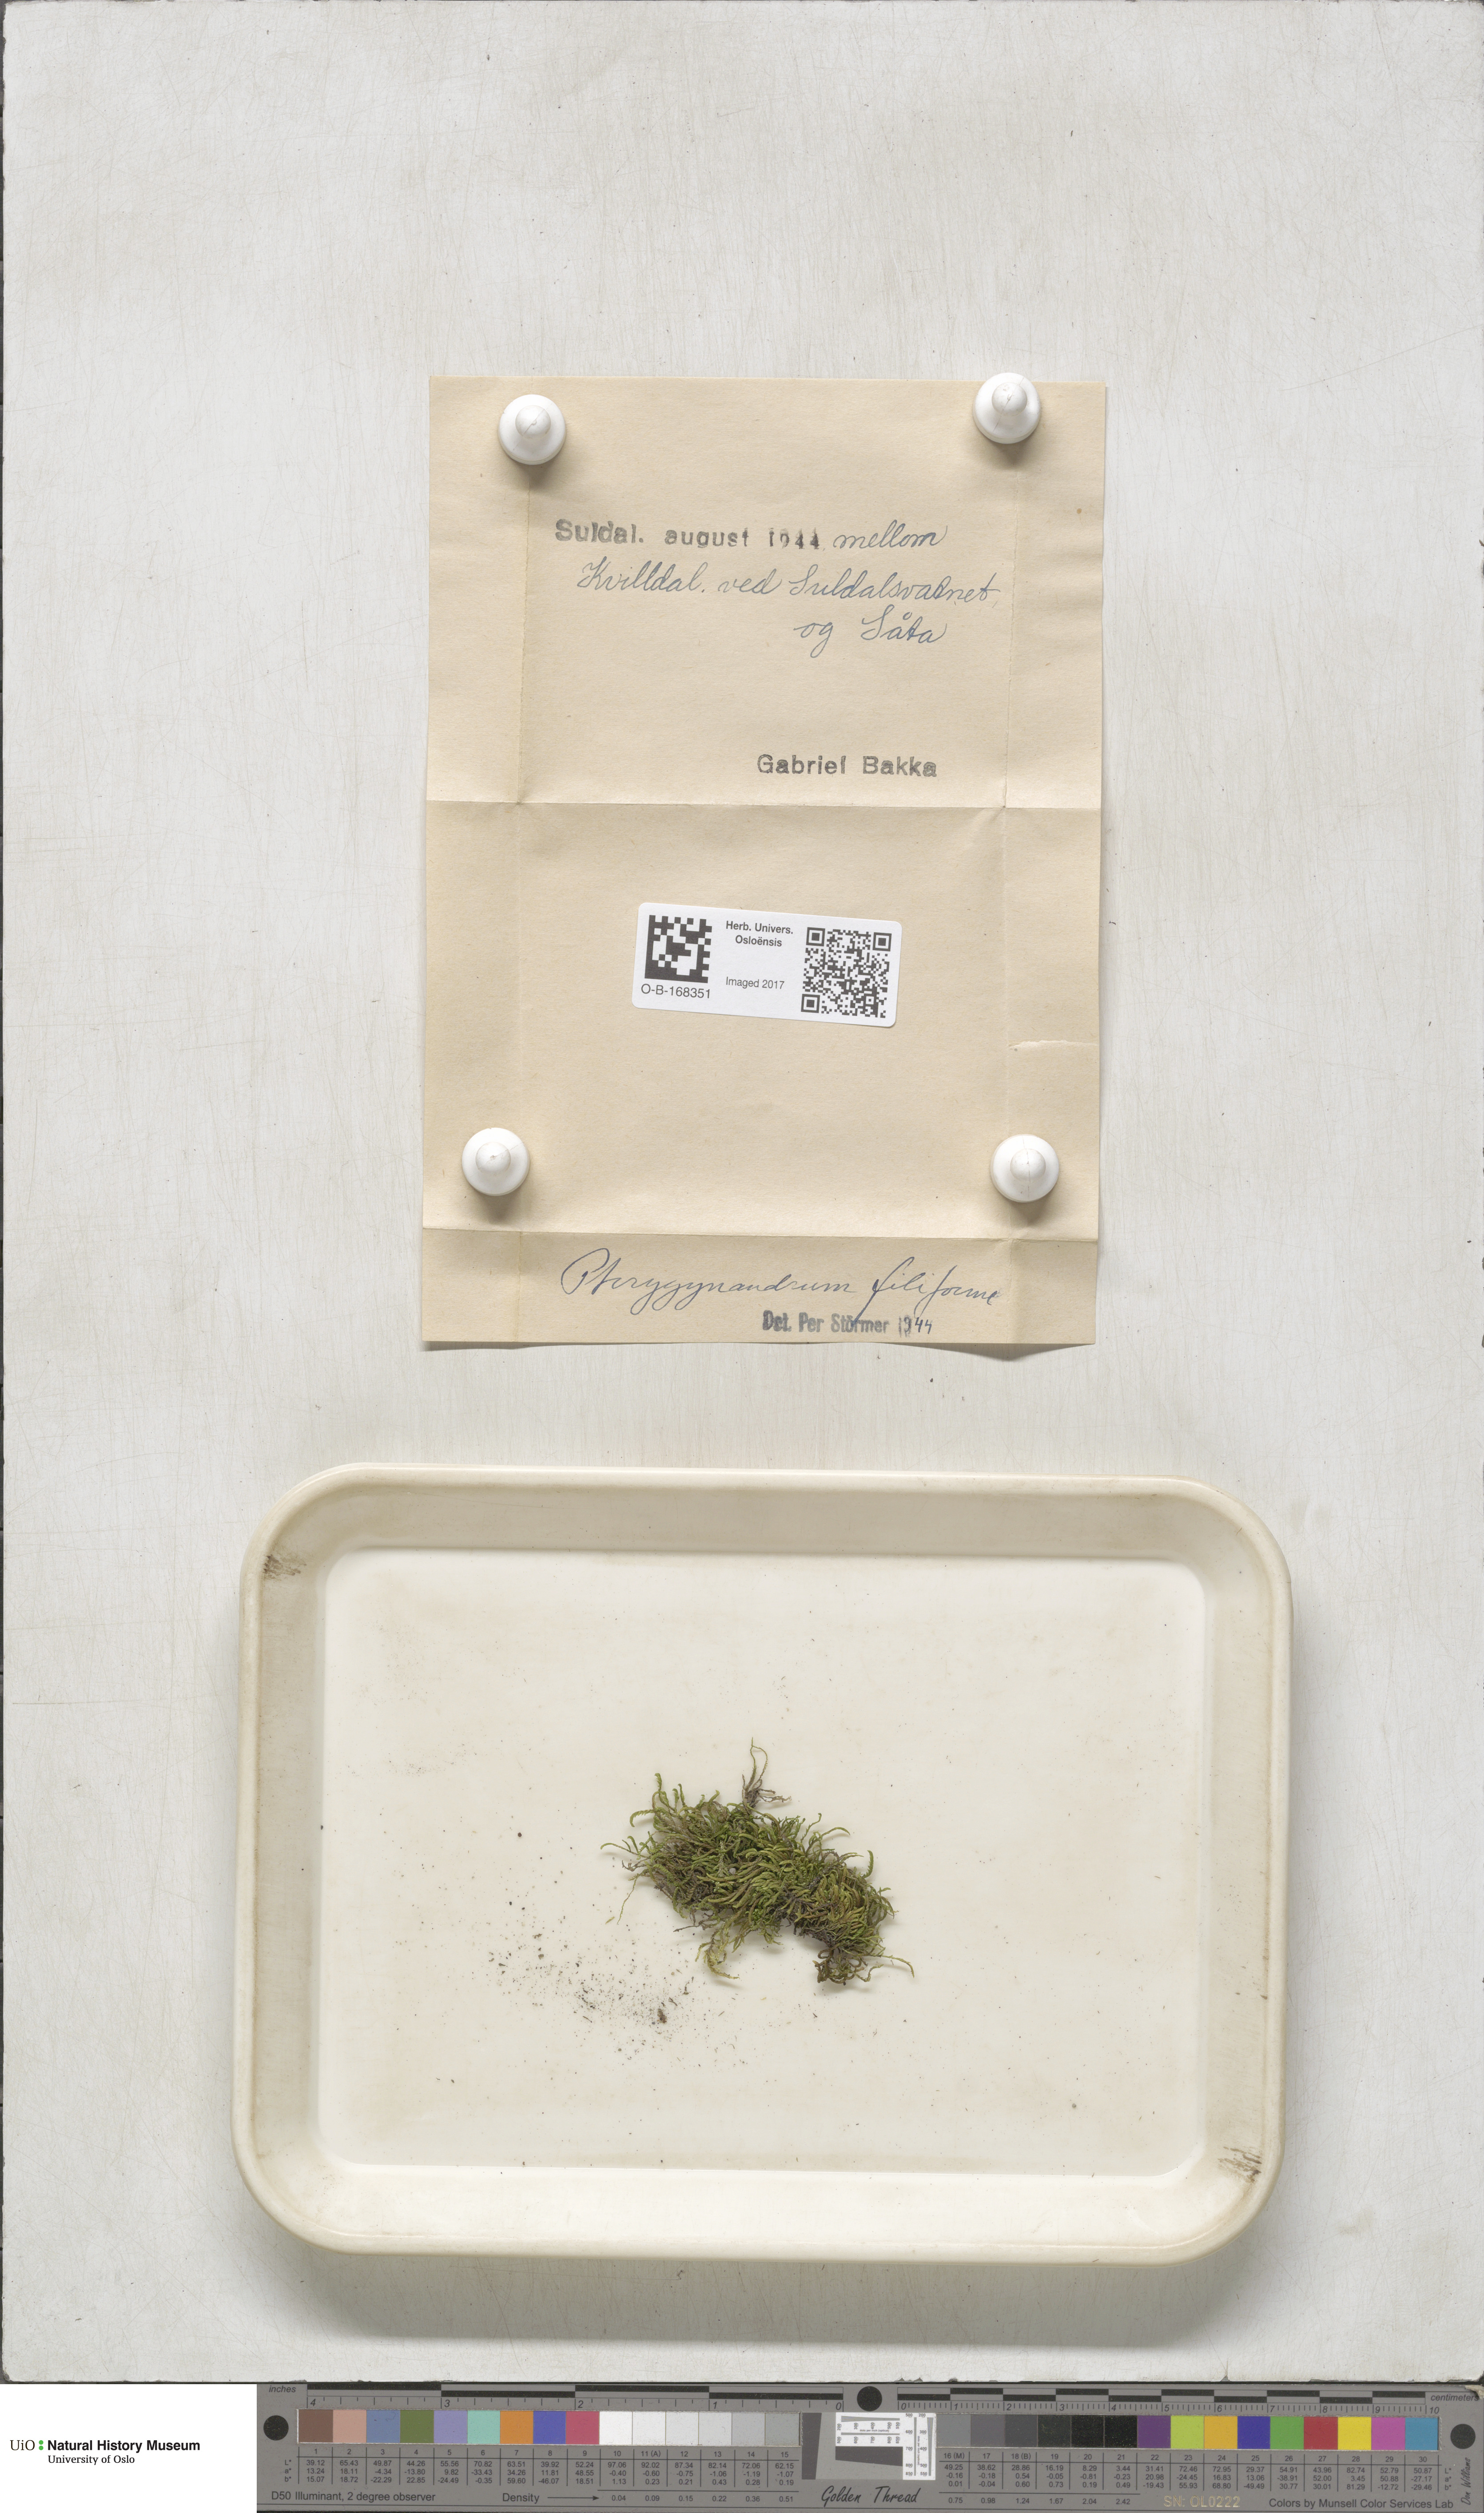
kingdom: Plantae
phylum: Bryophyta
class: Bryopsida
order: Hypnales
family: Pterigynandraceae
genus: Pterigynandrum
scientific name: Pterigynandrum filiforme
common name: Capillary wing moss
